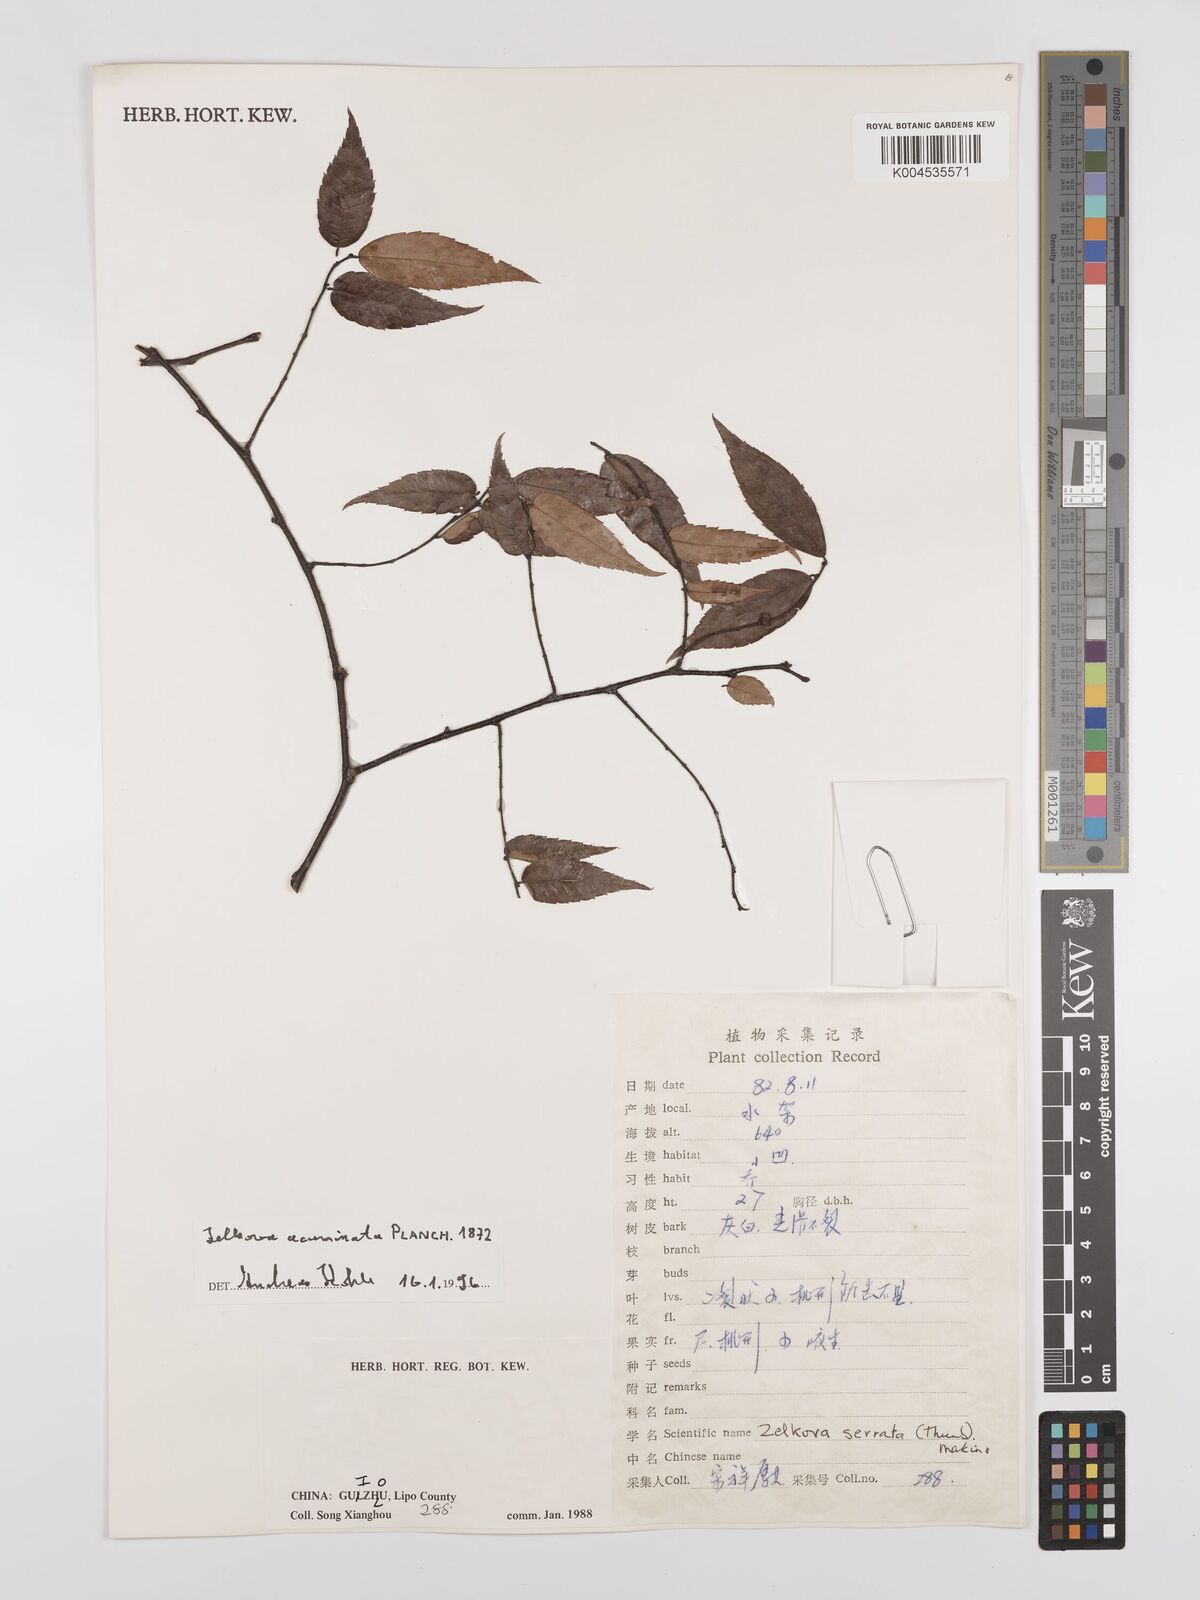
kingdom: Plantae
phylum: Tracheophyta
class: Magnoliopsida
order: Rosales
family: Ulmaceae
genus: Zelkova
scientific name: Zelkova schneideriana
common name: Schneider’s zelkova
